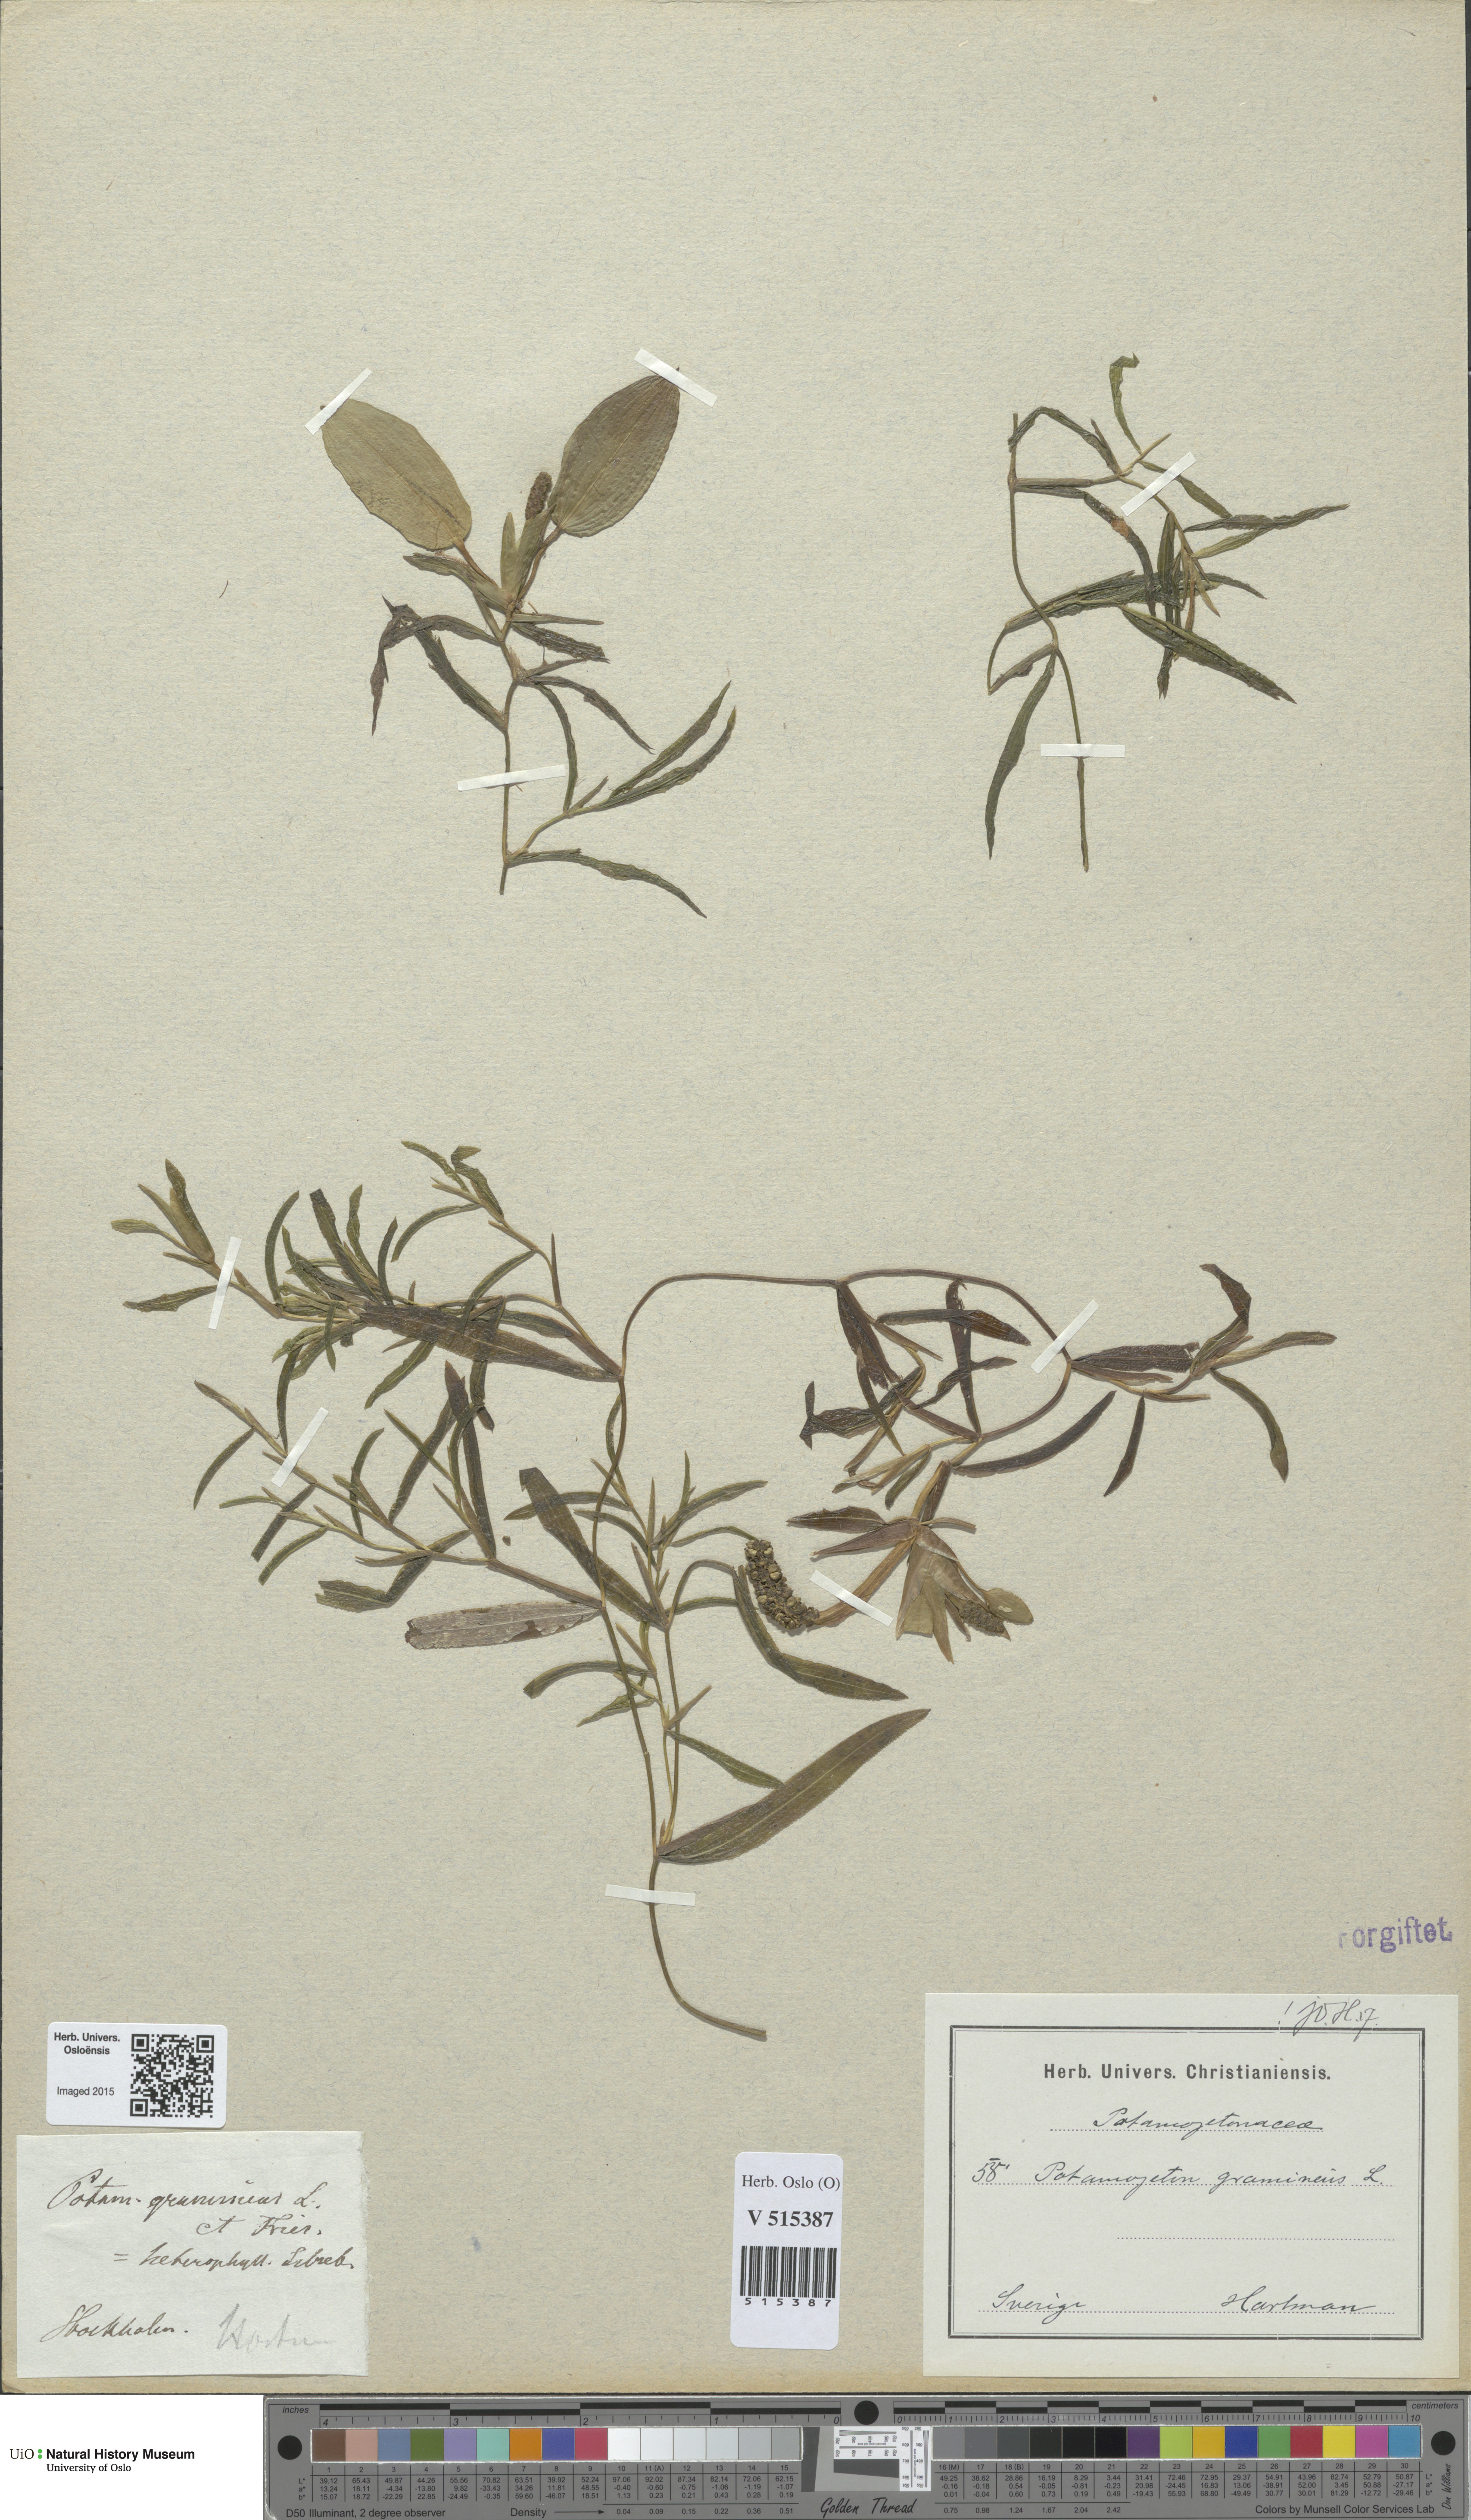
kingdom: Plantae
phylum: Tracheophyta
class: Liliopsida
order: Alismatales
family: Potamogetonaceae
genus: Potamogeton
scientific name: Potamogeton gramineus
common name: Various-leaved pondweed
